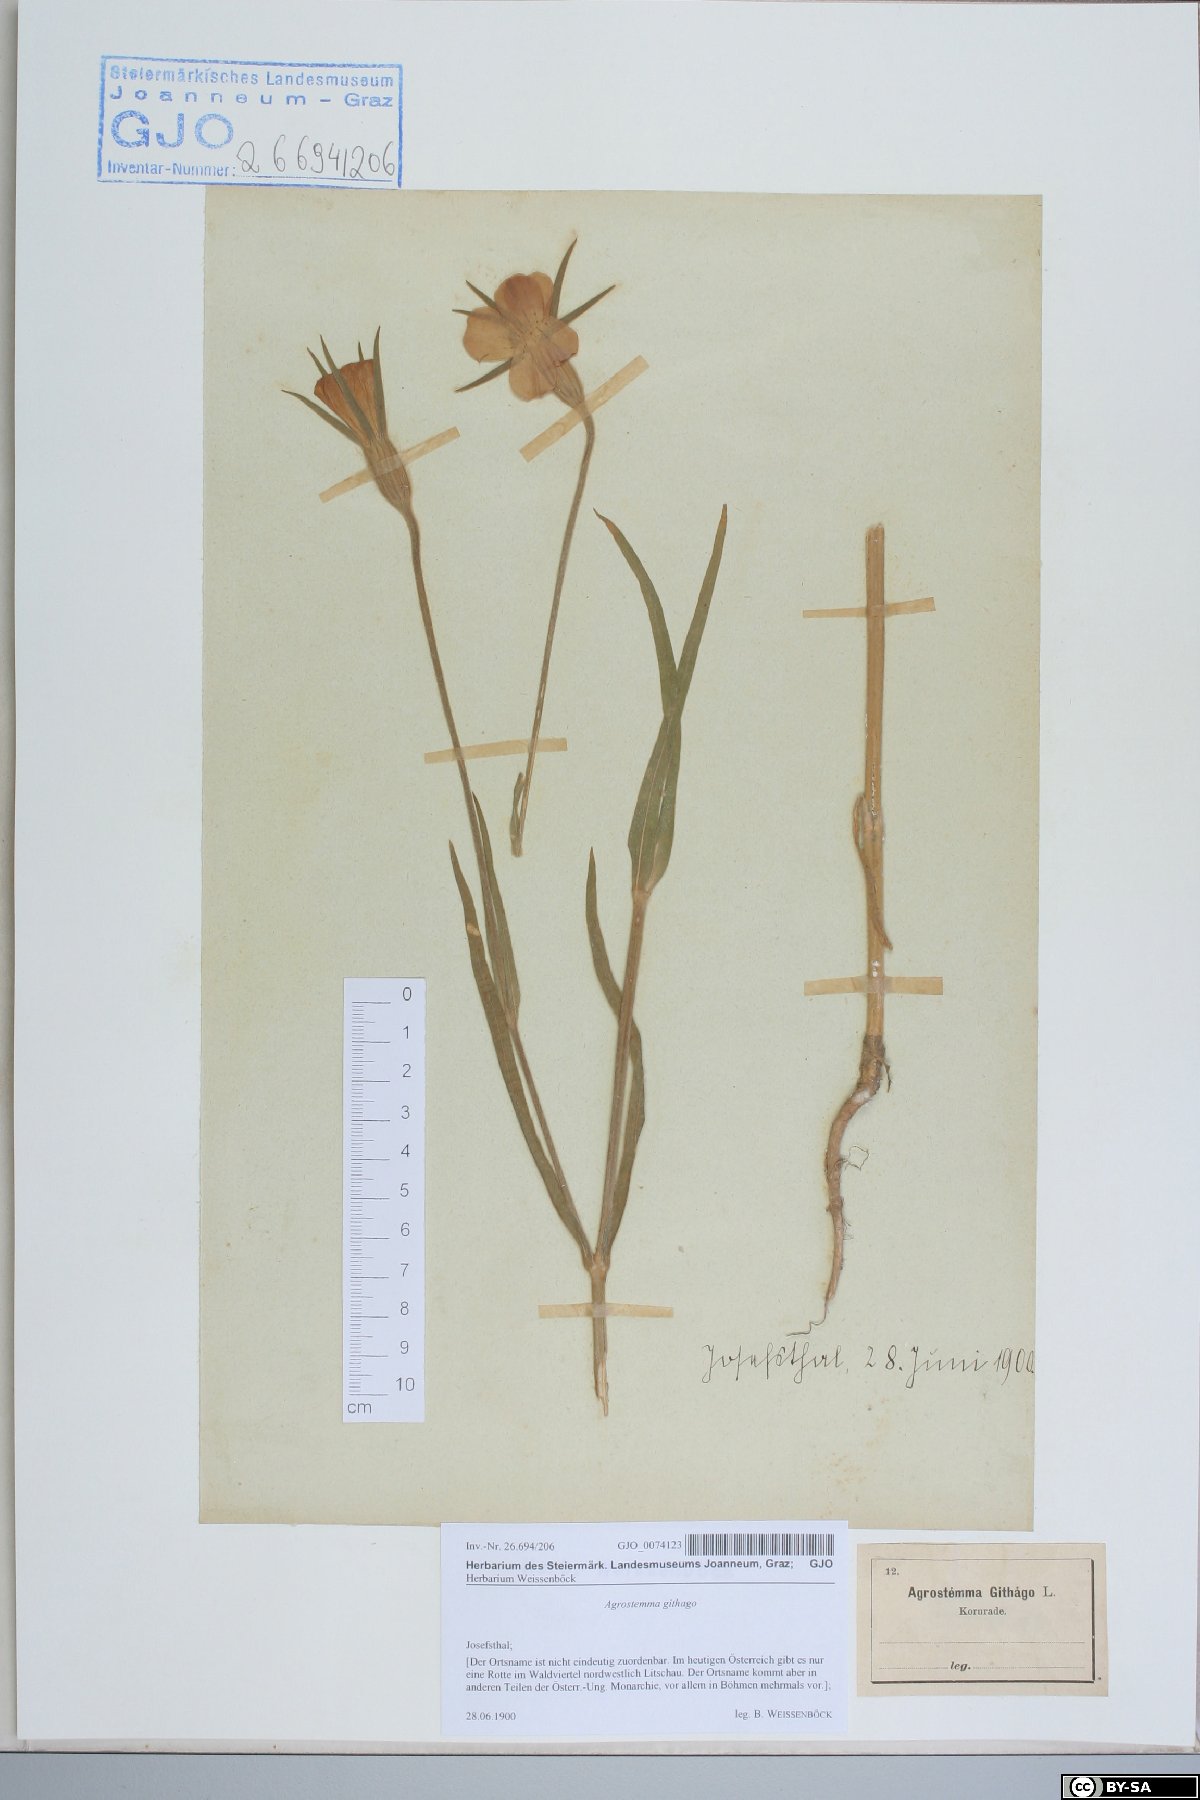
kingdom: Plantae
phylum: Tracheophyta
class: Magnoliopsida
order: Caryophyllales
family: Caryophyllaceae
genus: Agrostemma
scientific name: Agrostemma githago
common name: Common corncockle
